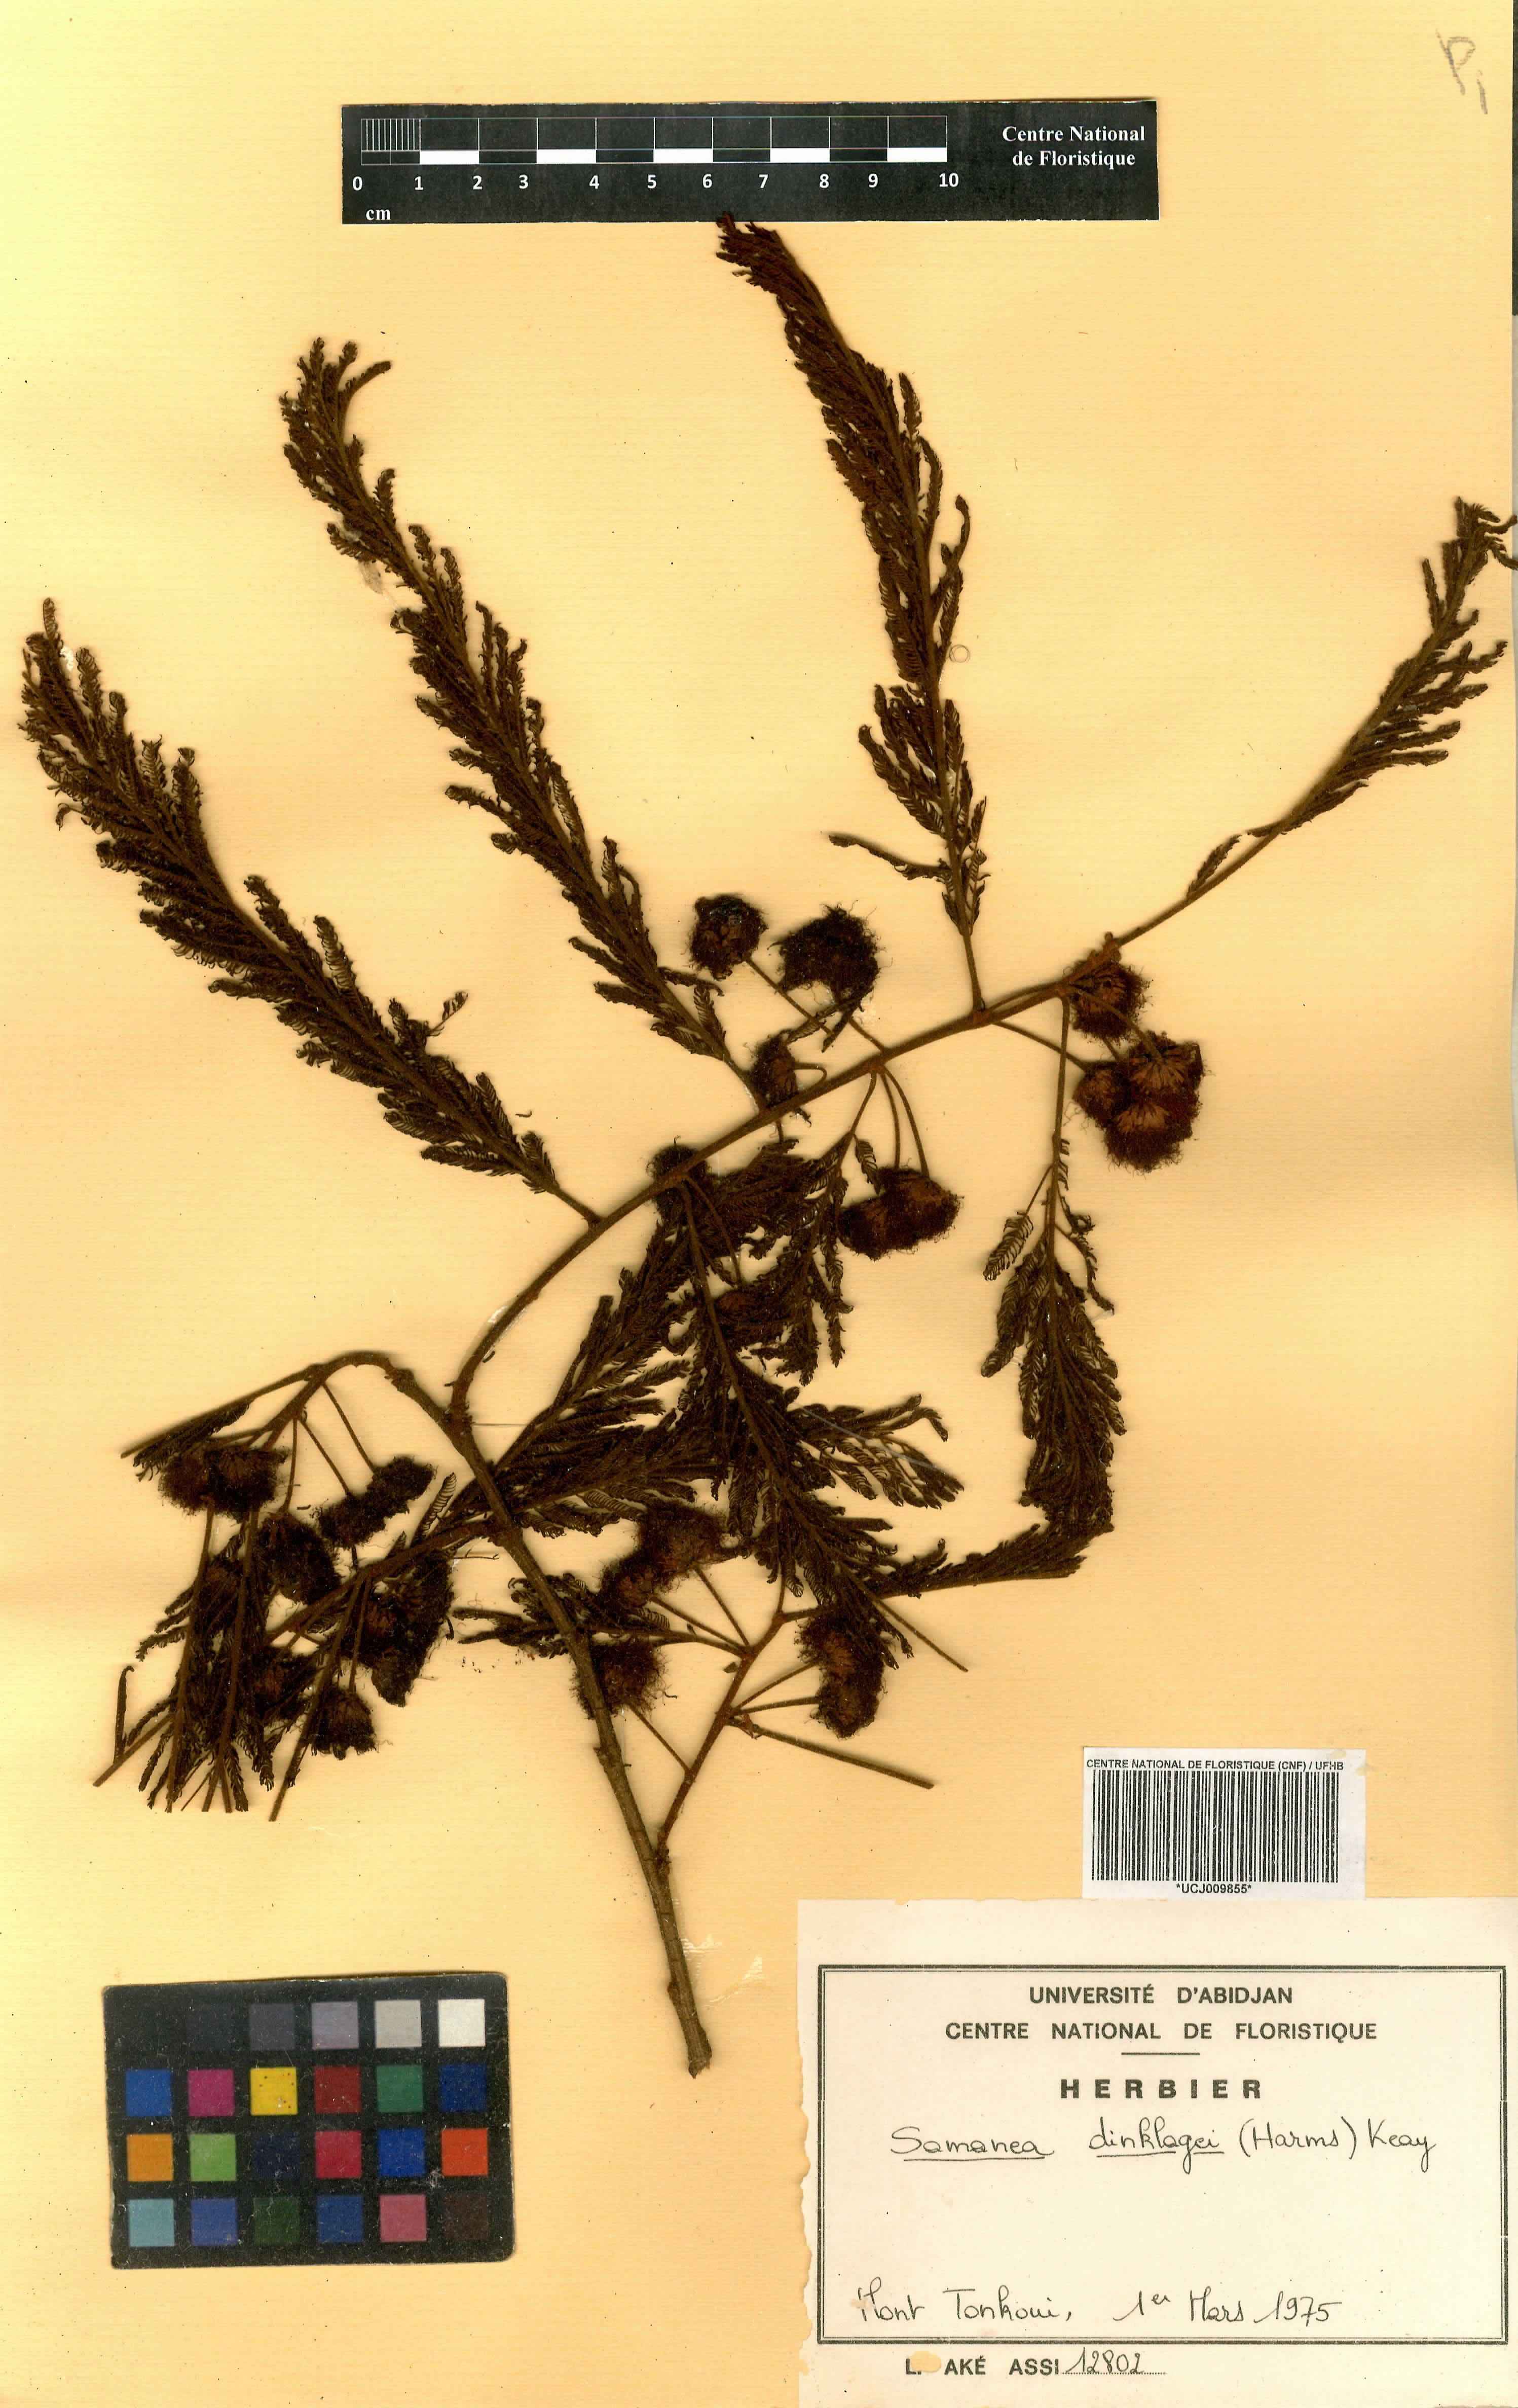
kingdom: Plantae
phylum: Tracheophyta
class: Magnoliopsida
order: Fabales
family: Fabaceae
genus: Albizia
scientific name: Albizia dinklagei
